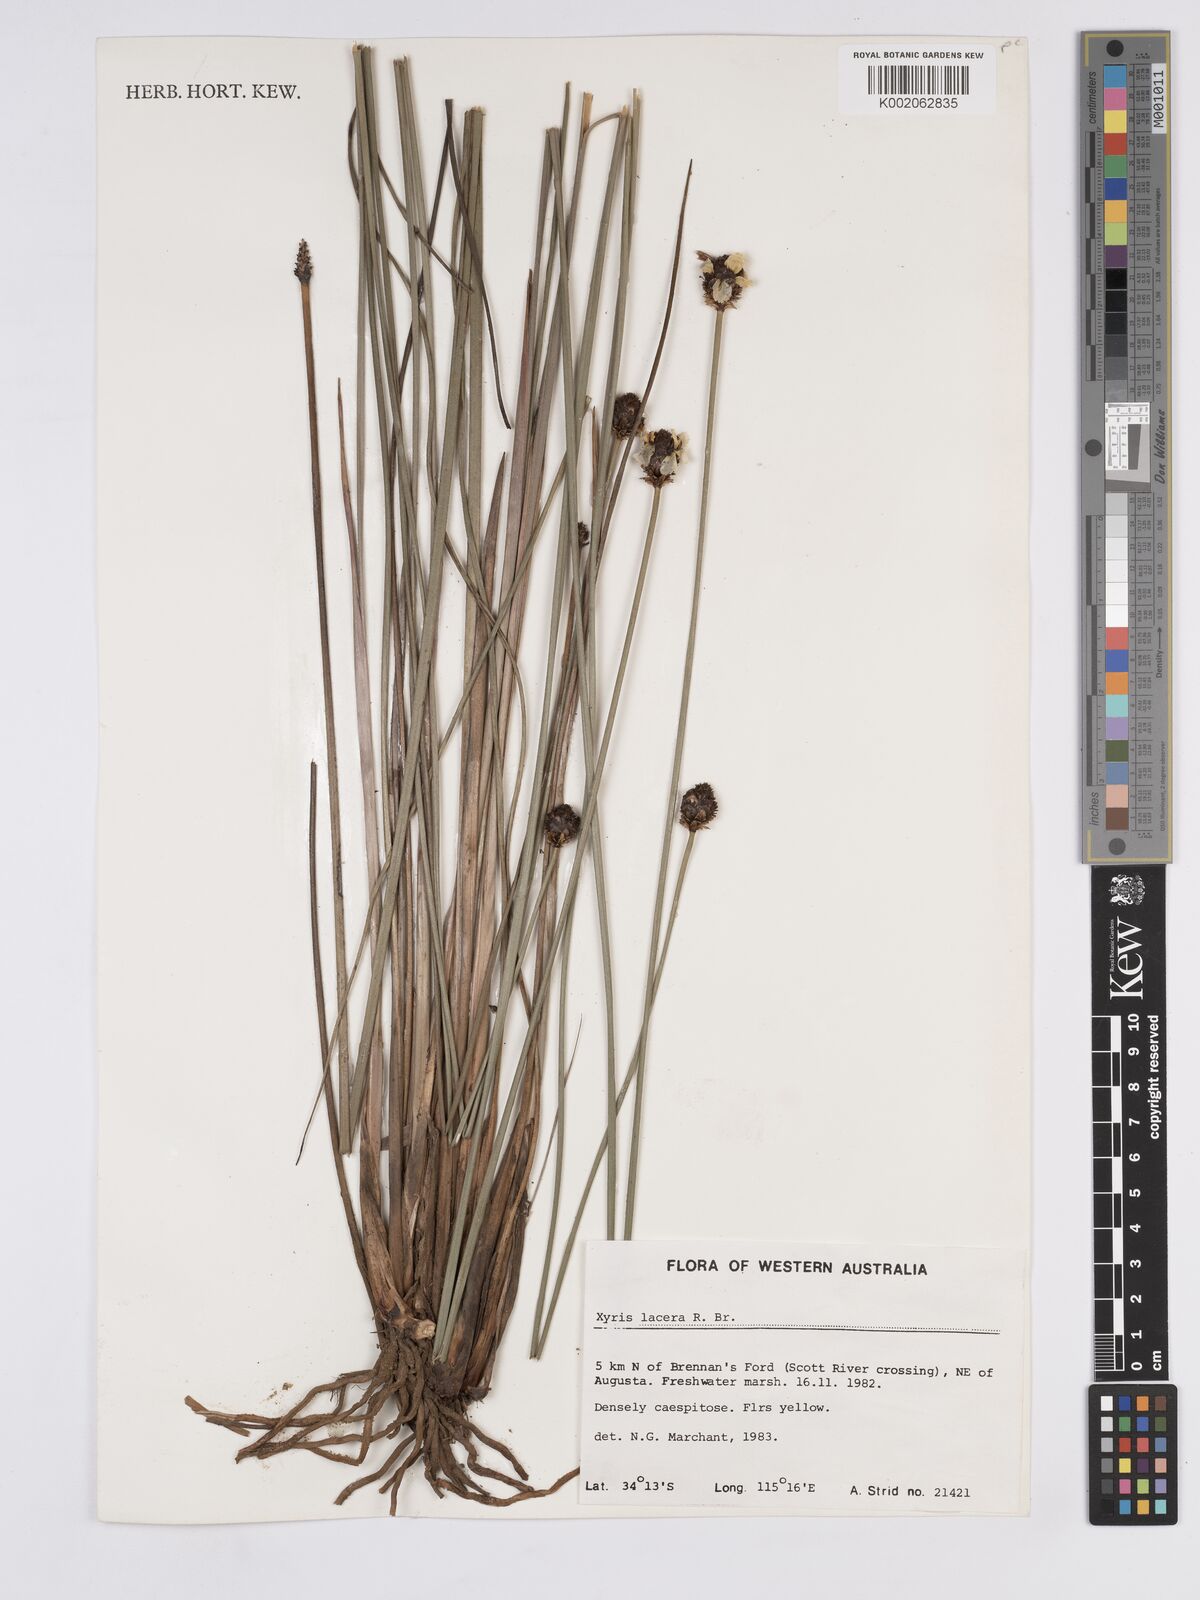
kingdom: Plantae
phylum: Tracheophyta
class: Liliopsida
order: Poales
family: Xyridaceae
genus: Xyris
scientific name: Xyris lacera
